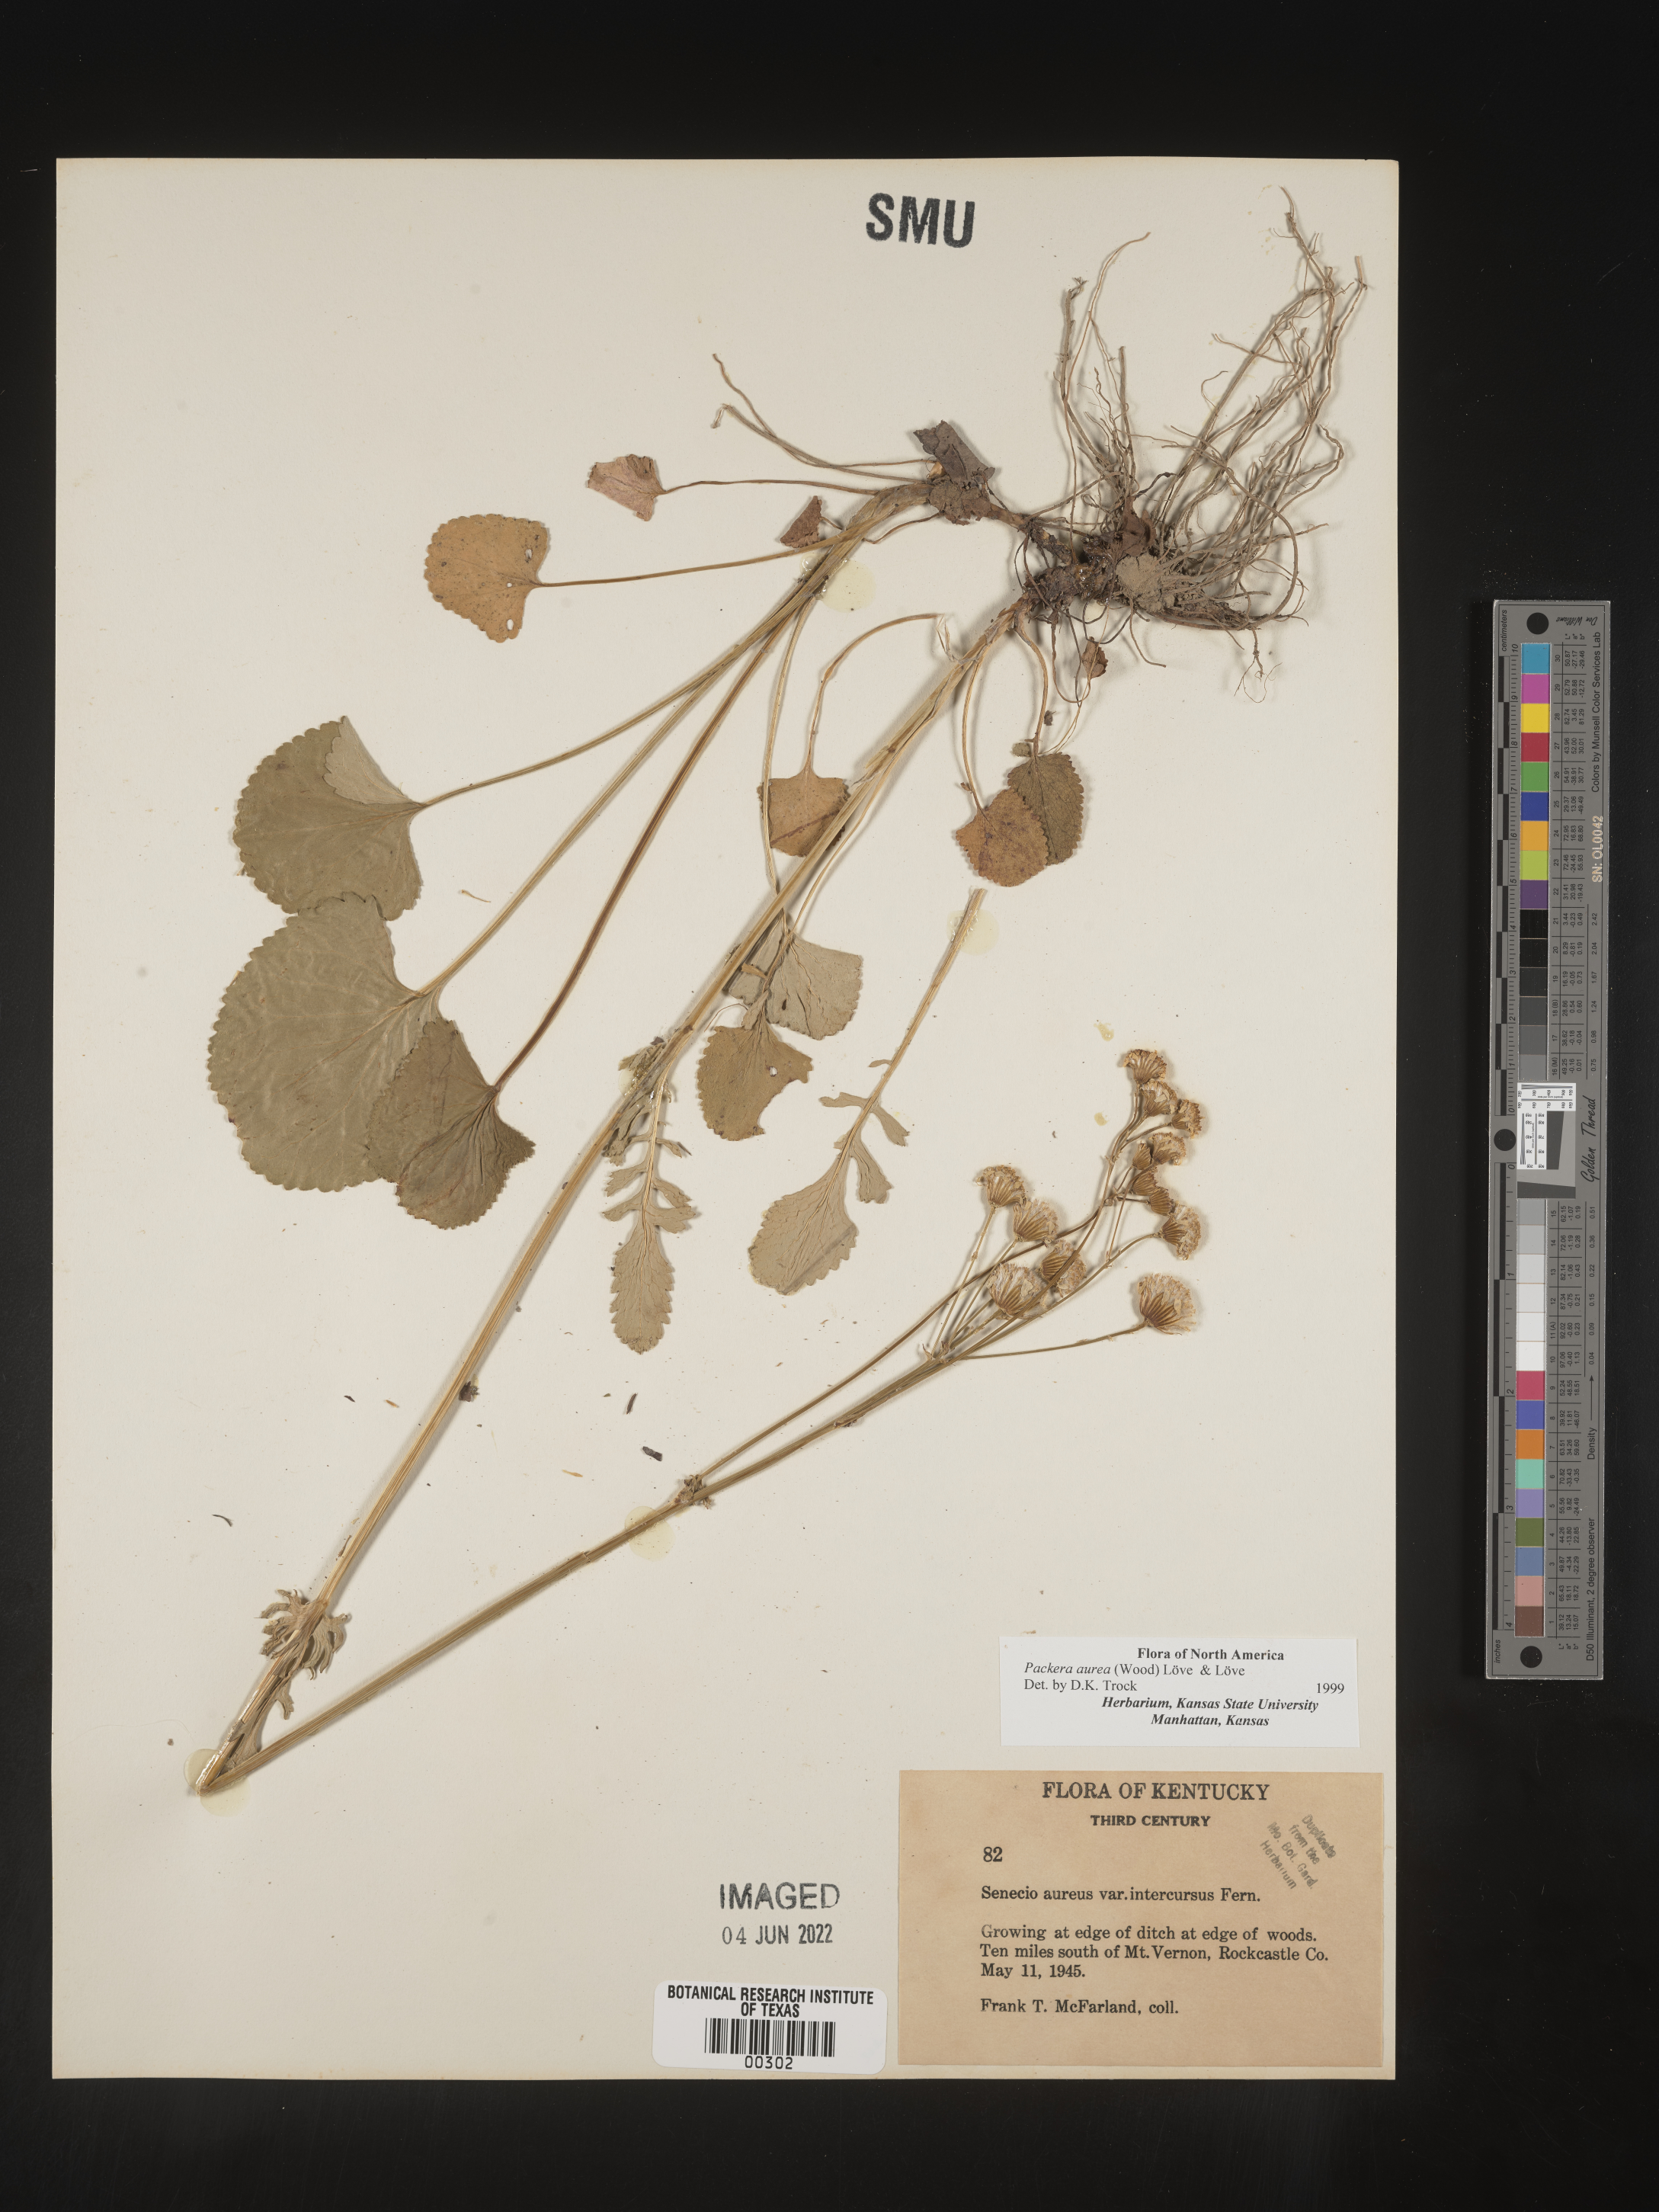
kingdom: Plantae
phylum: Tracheophyta
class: Magnoliopsida
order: Asterales
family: Asteraceae
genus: Packera
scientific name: Packera aurea
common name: Golden groundsel
